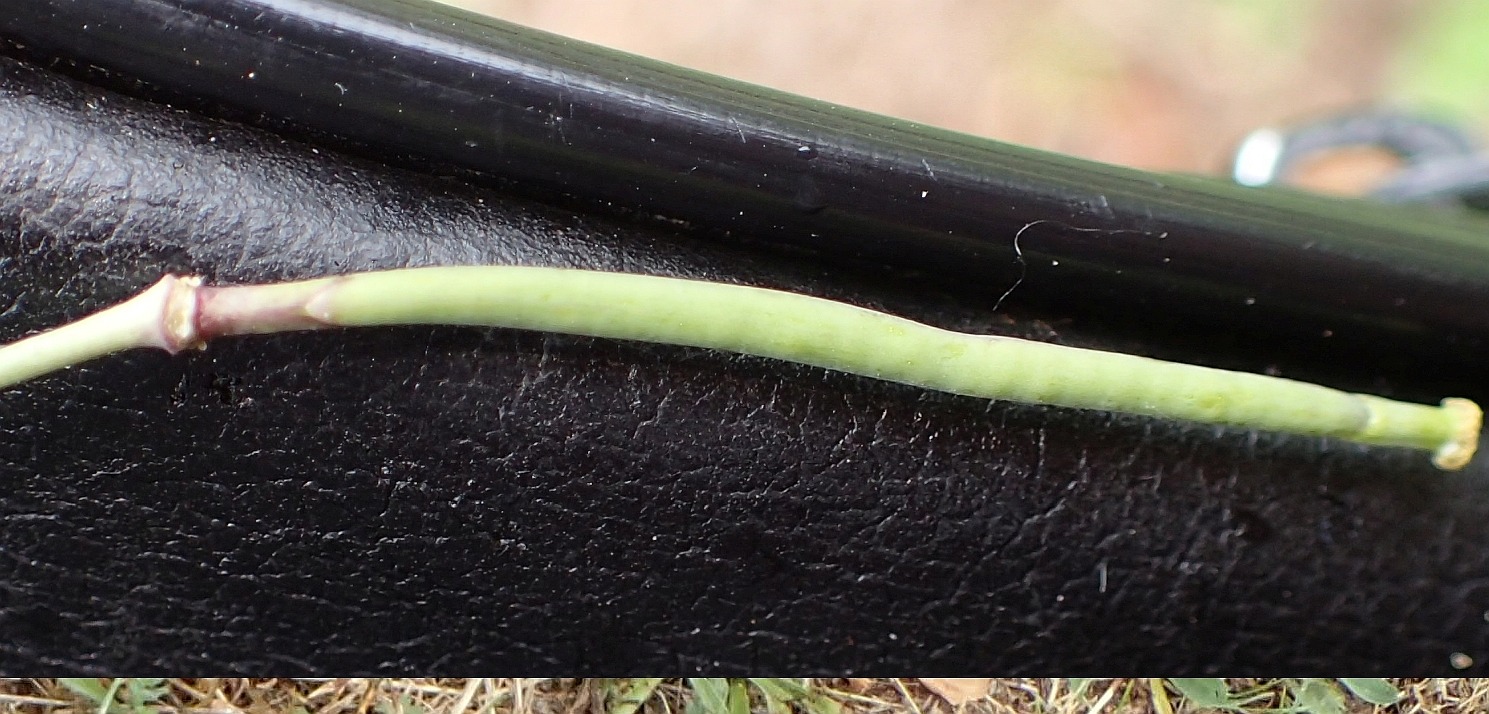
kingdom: Plantae
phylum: Tracheophyta
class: Magnoliopsida
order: Brassicales
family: Brassicaceae
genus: Diplotaxis
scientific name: Diplotaxis tenuifolia
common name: Sandsennep
